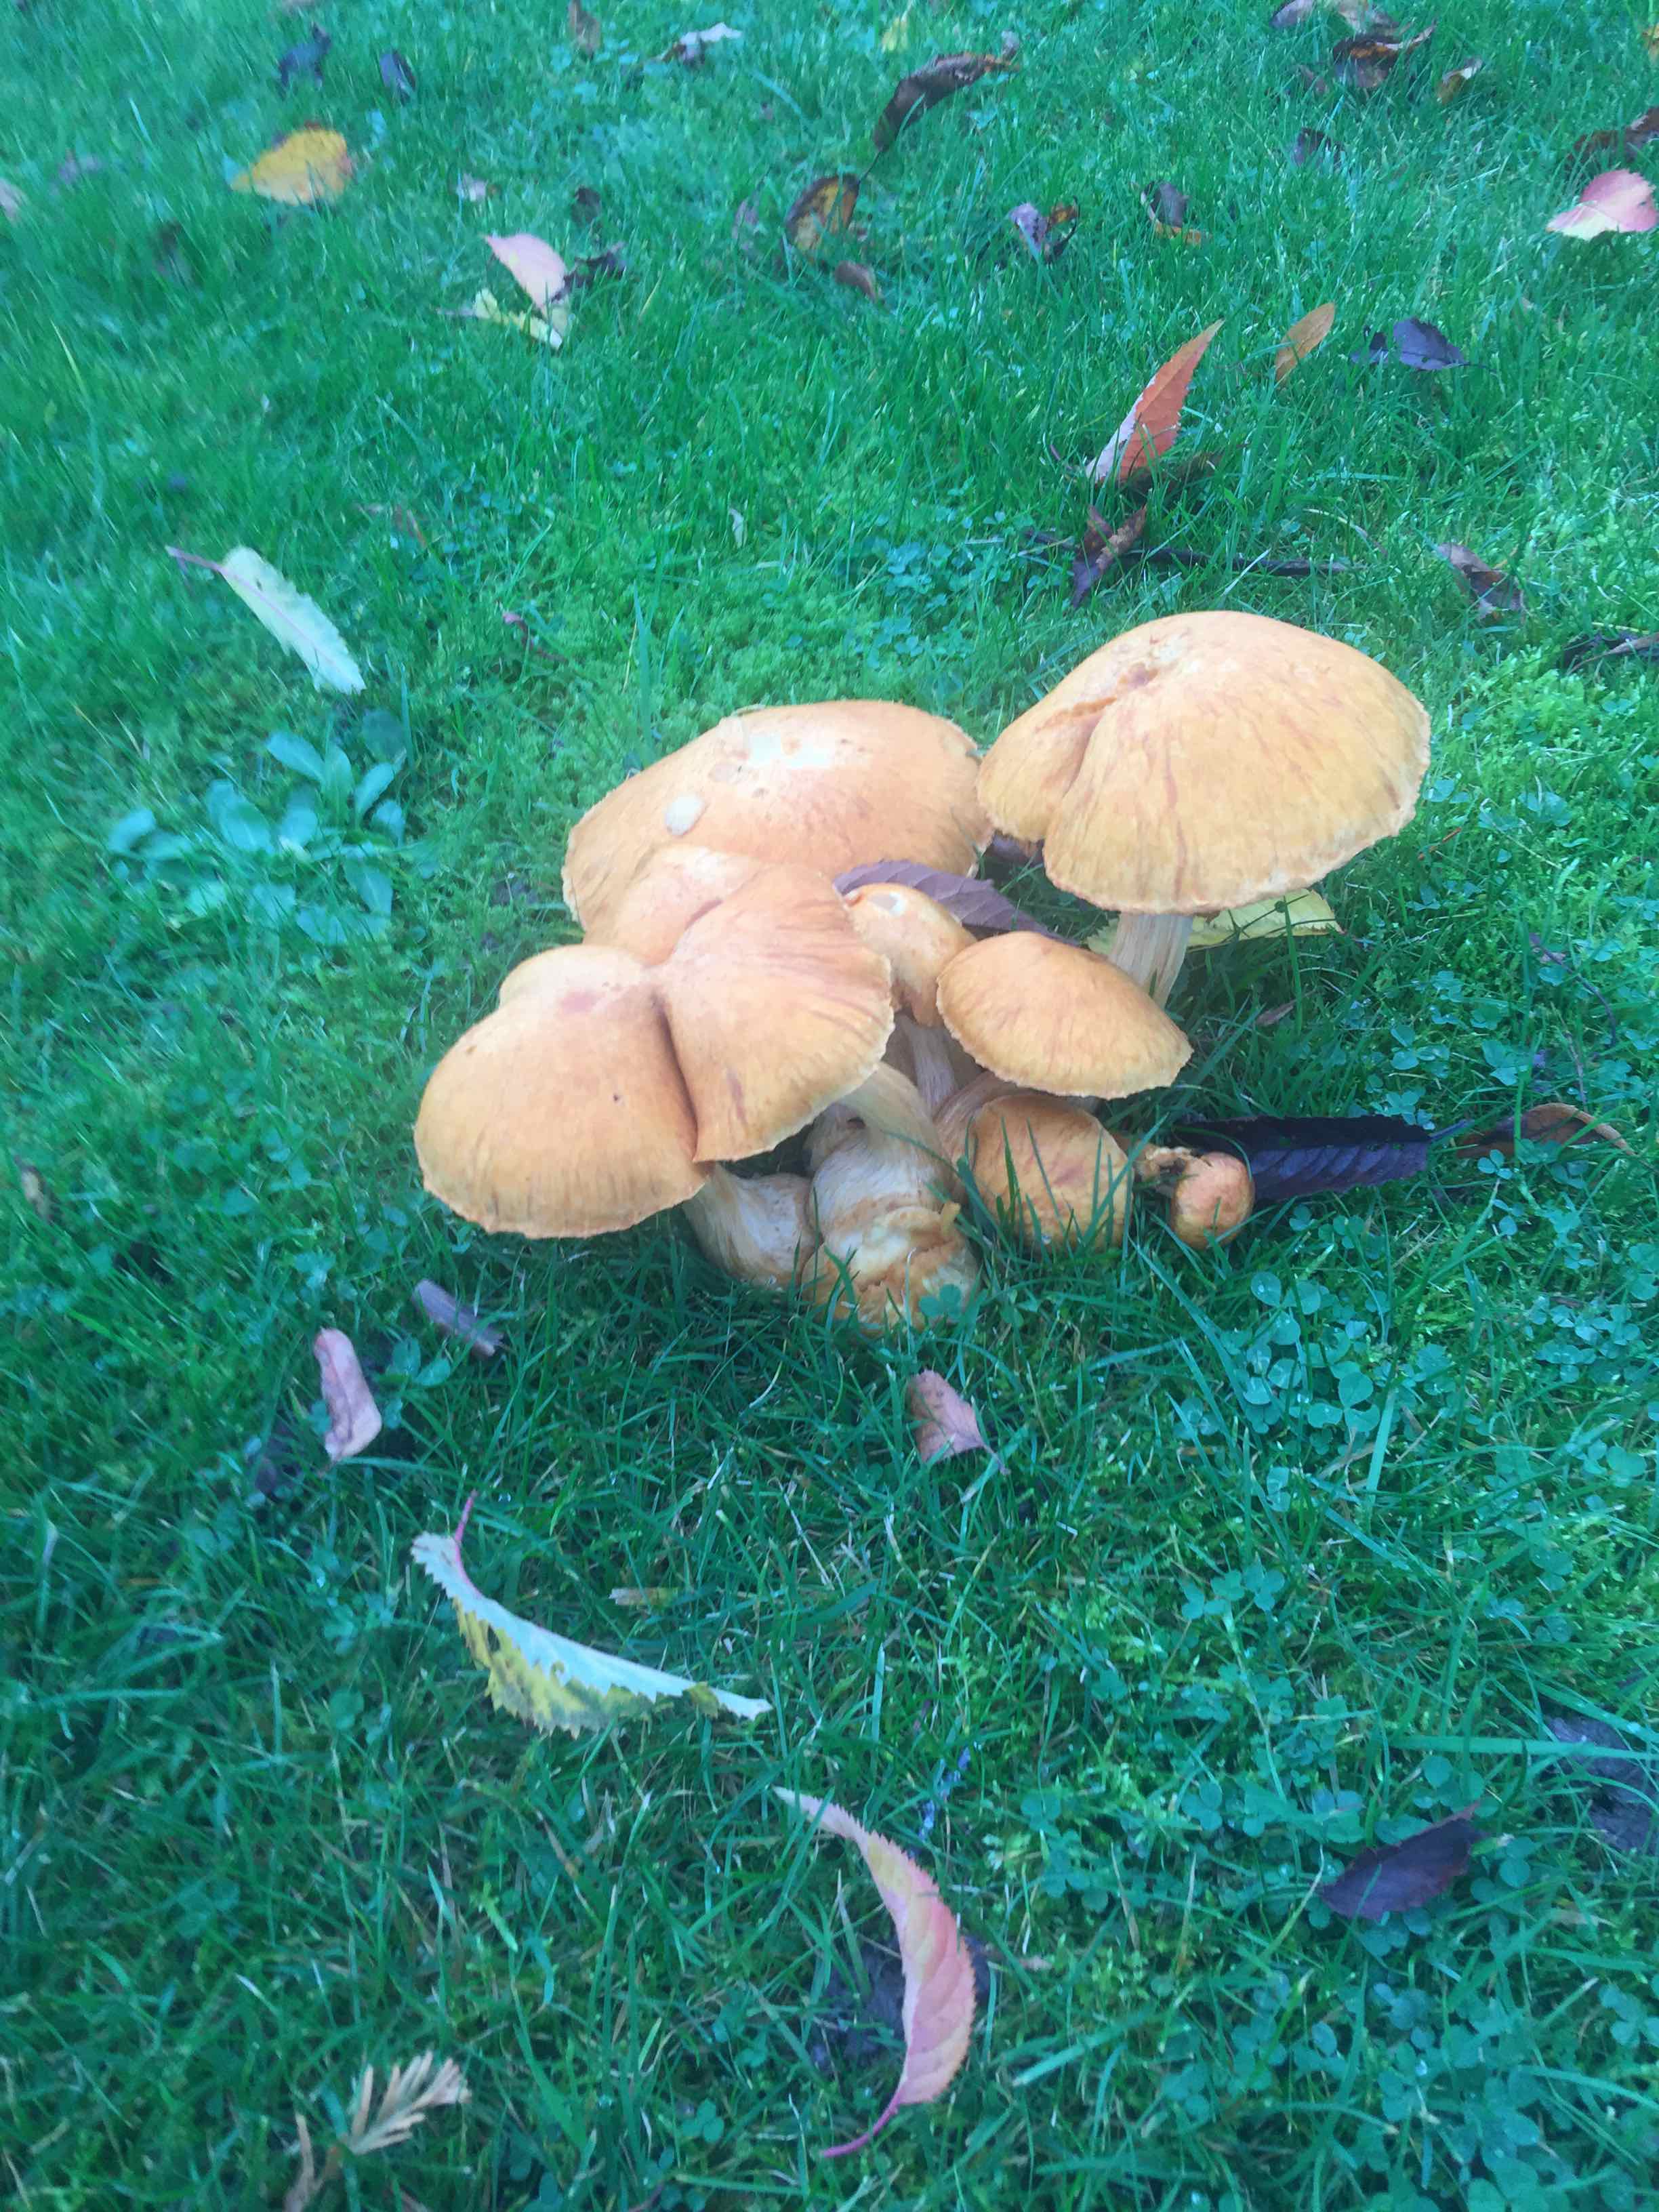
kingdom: Fungi
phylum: Basidiomycota
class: Agaricomycetes
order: Agaricales
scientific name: Agaricales
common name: champignonordenen
